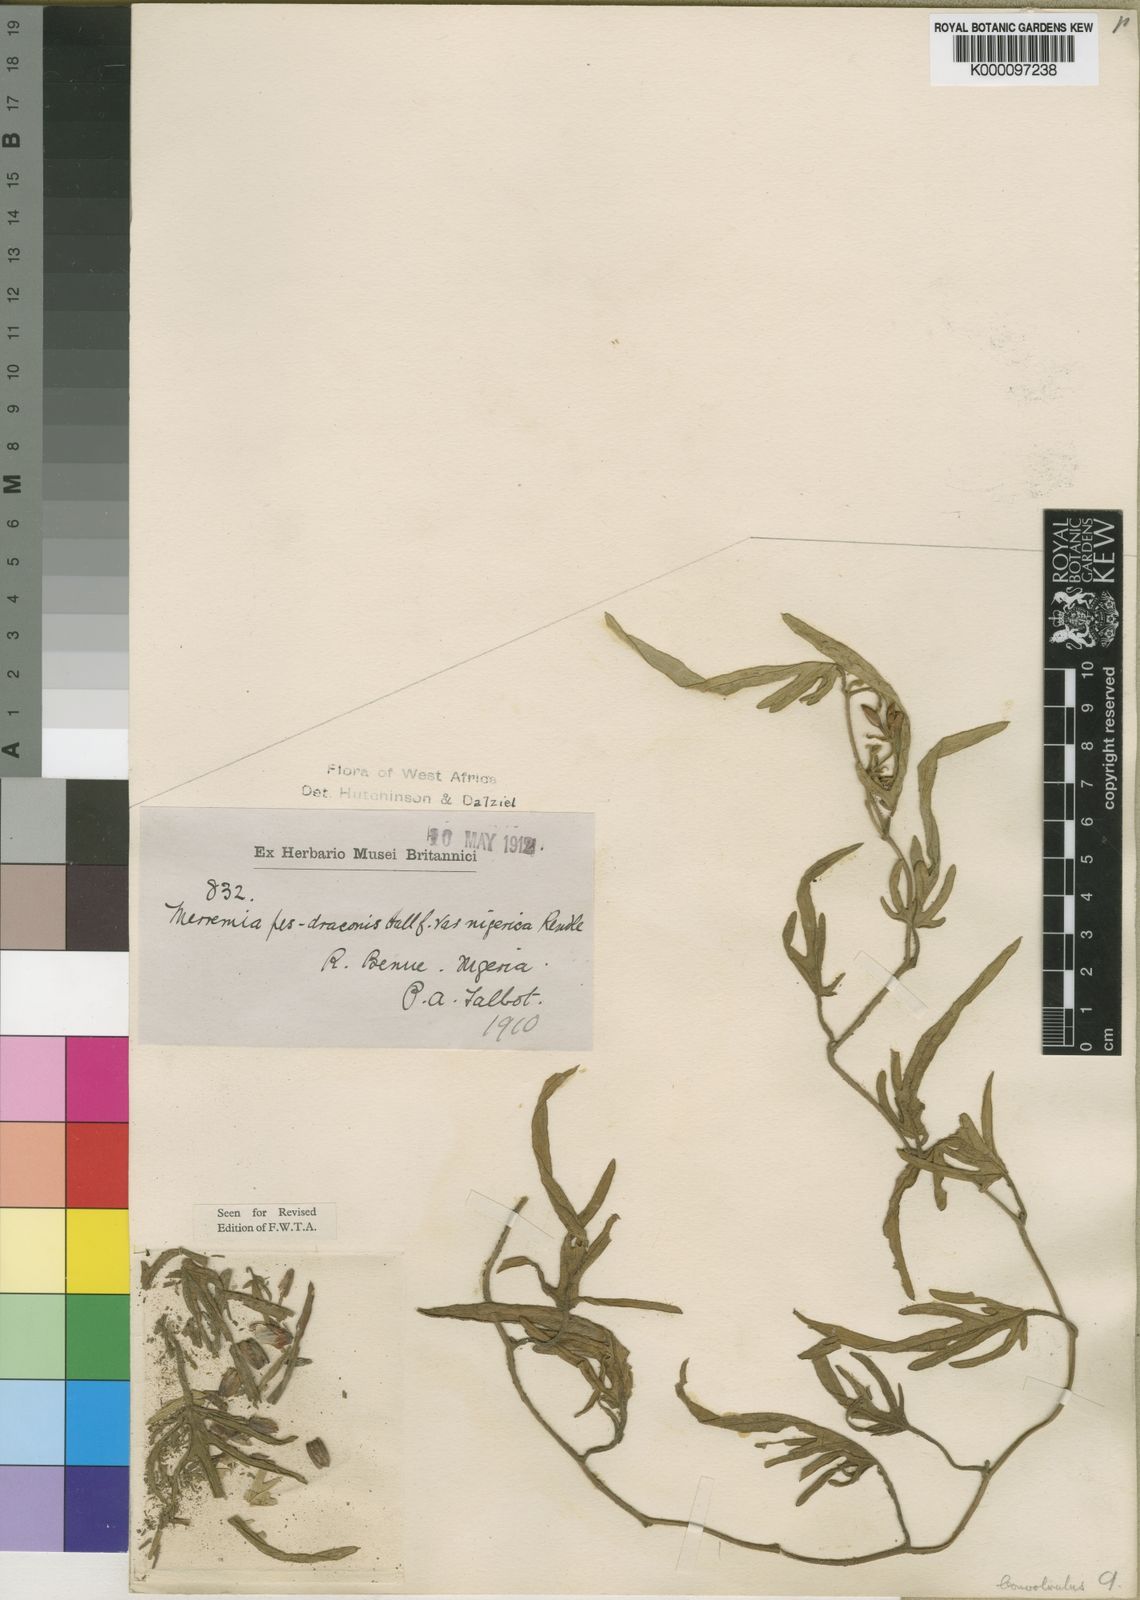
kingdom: Plantae
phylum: Tracheophyta
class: Magnoliopsida
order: Solanales
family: Convolvulaceae
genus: Merremia
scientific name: Merremia xanthophylla
